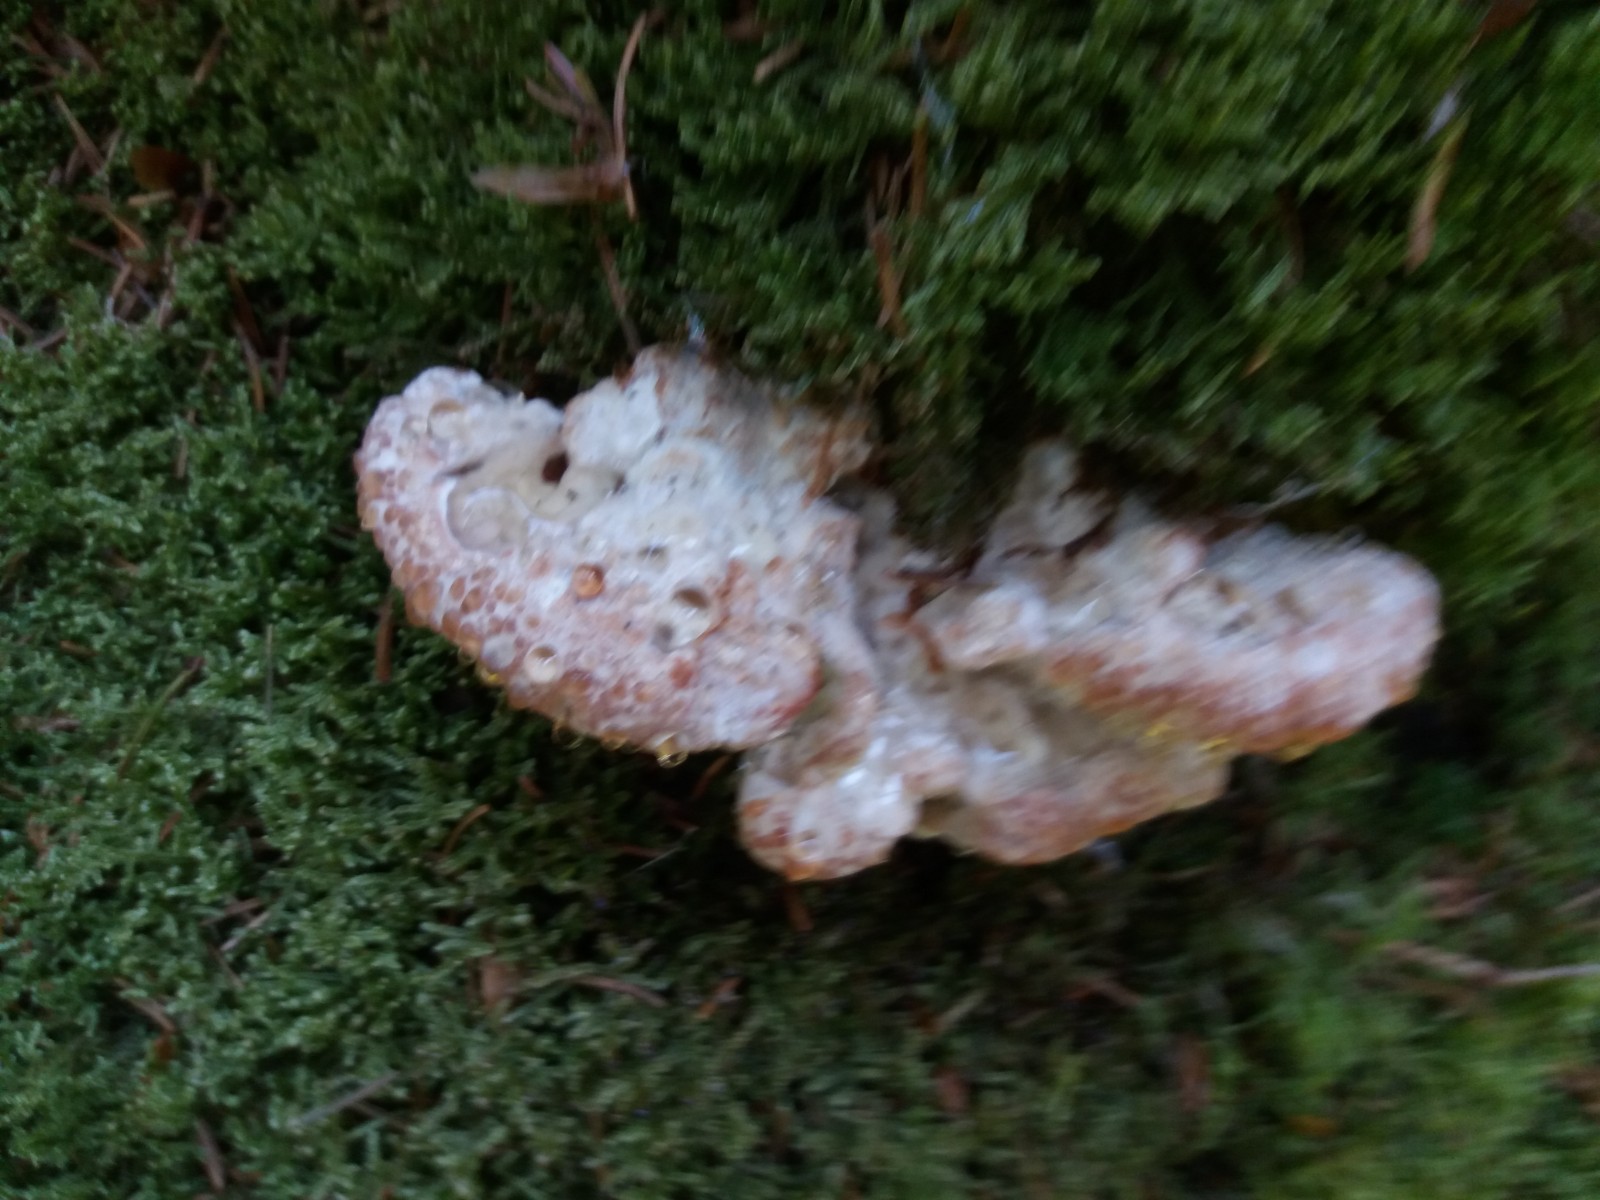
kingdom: Fungi
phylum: Basidiomycota
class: Agaricomycetes
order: Polyporales
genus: Calcipostia
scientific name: Calcipostia guttulata
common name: dråbe-kødporesvamp
